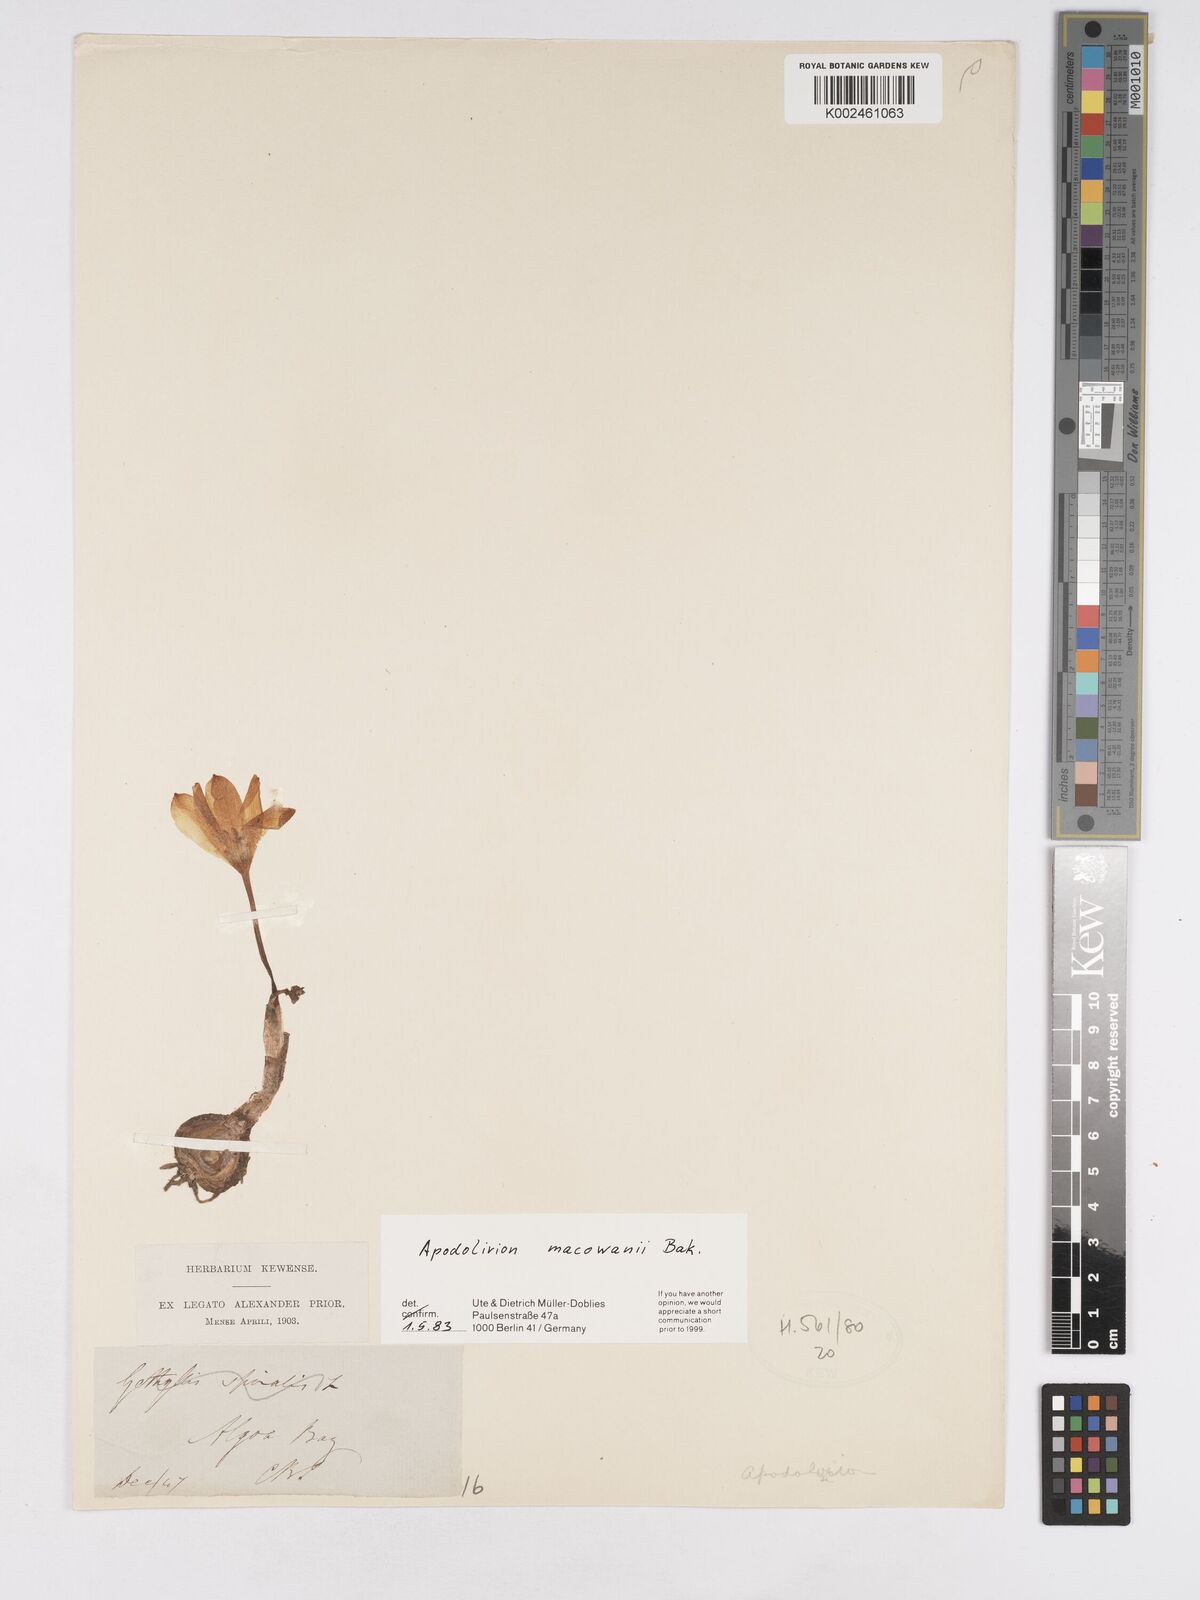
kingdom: Plantae
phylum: Tracheophyta
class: Liliopsida
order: Asparagales
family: Amaryllidaceae
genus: Apodolirion
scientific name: Apodolirion macowanii
